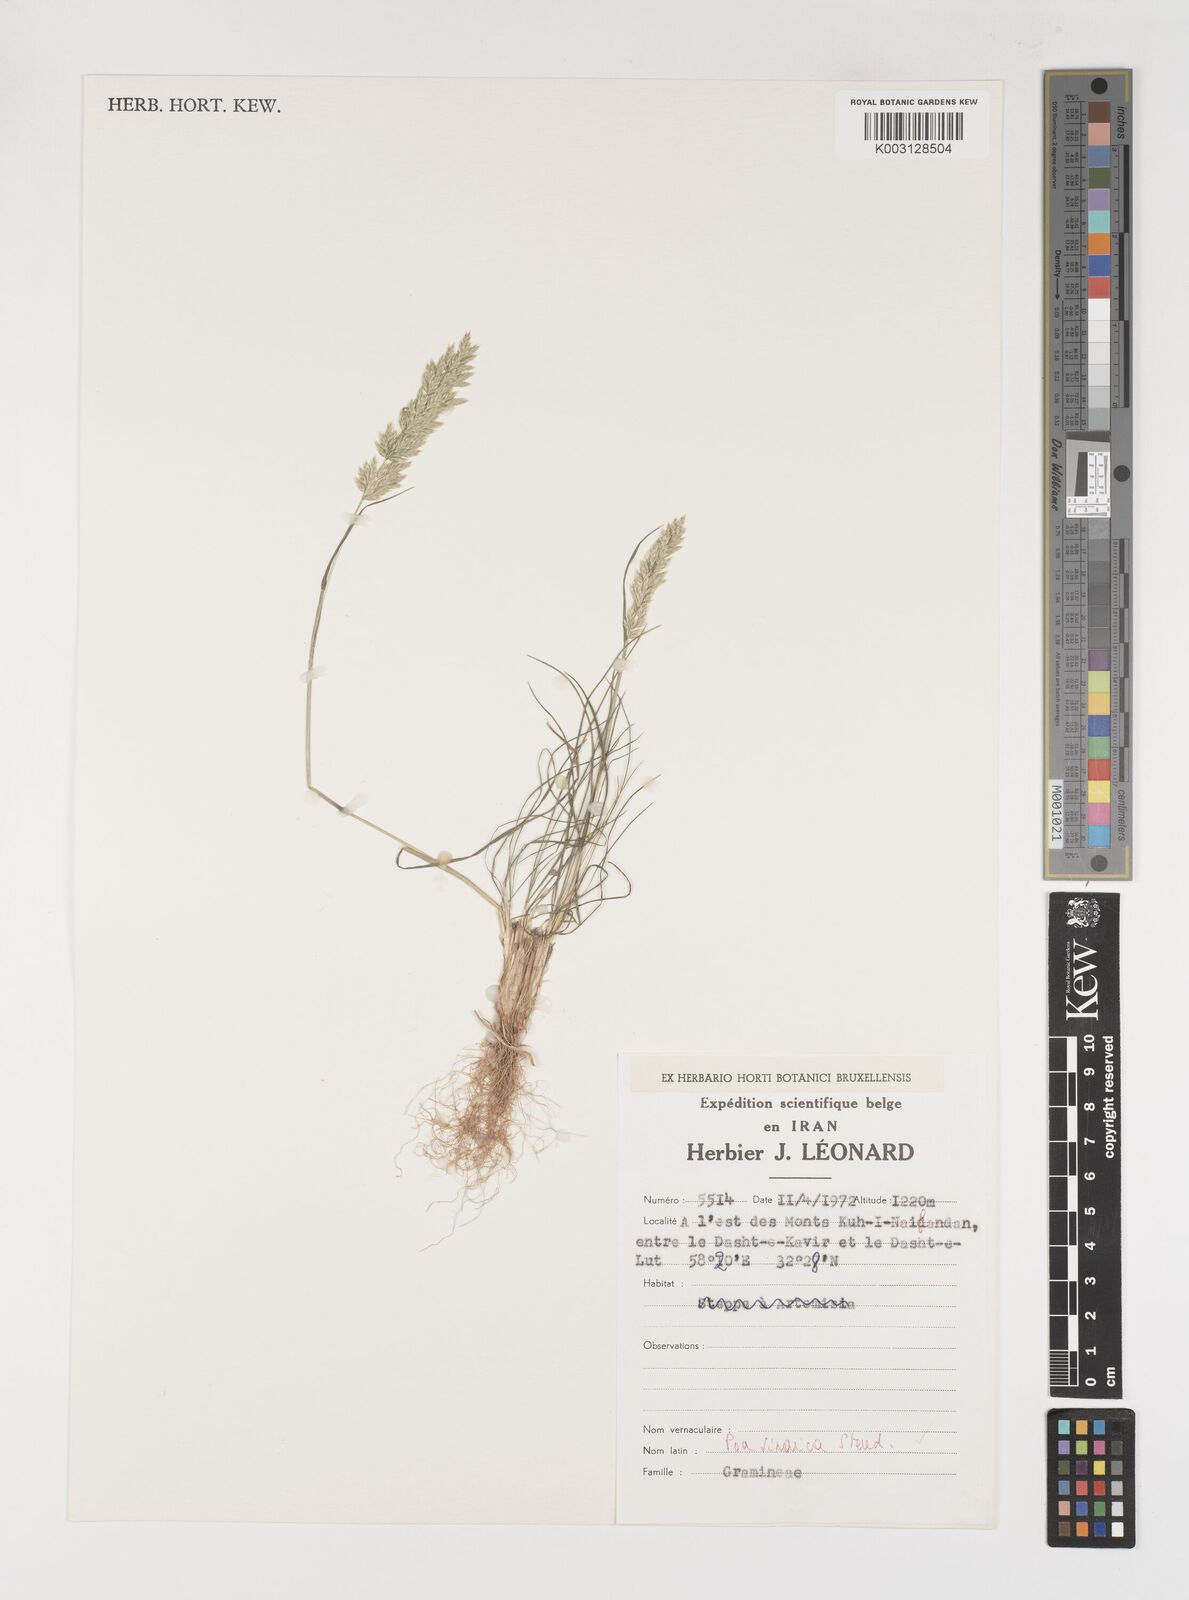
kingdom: Plantae
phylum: Tracheophyta
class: Liliopsida
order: Poales
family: Poaceae
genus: Poa
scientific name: Poa sinaica
